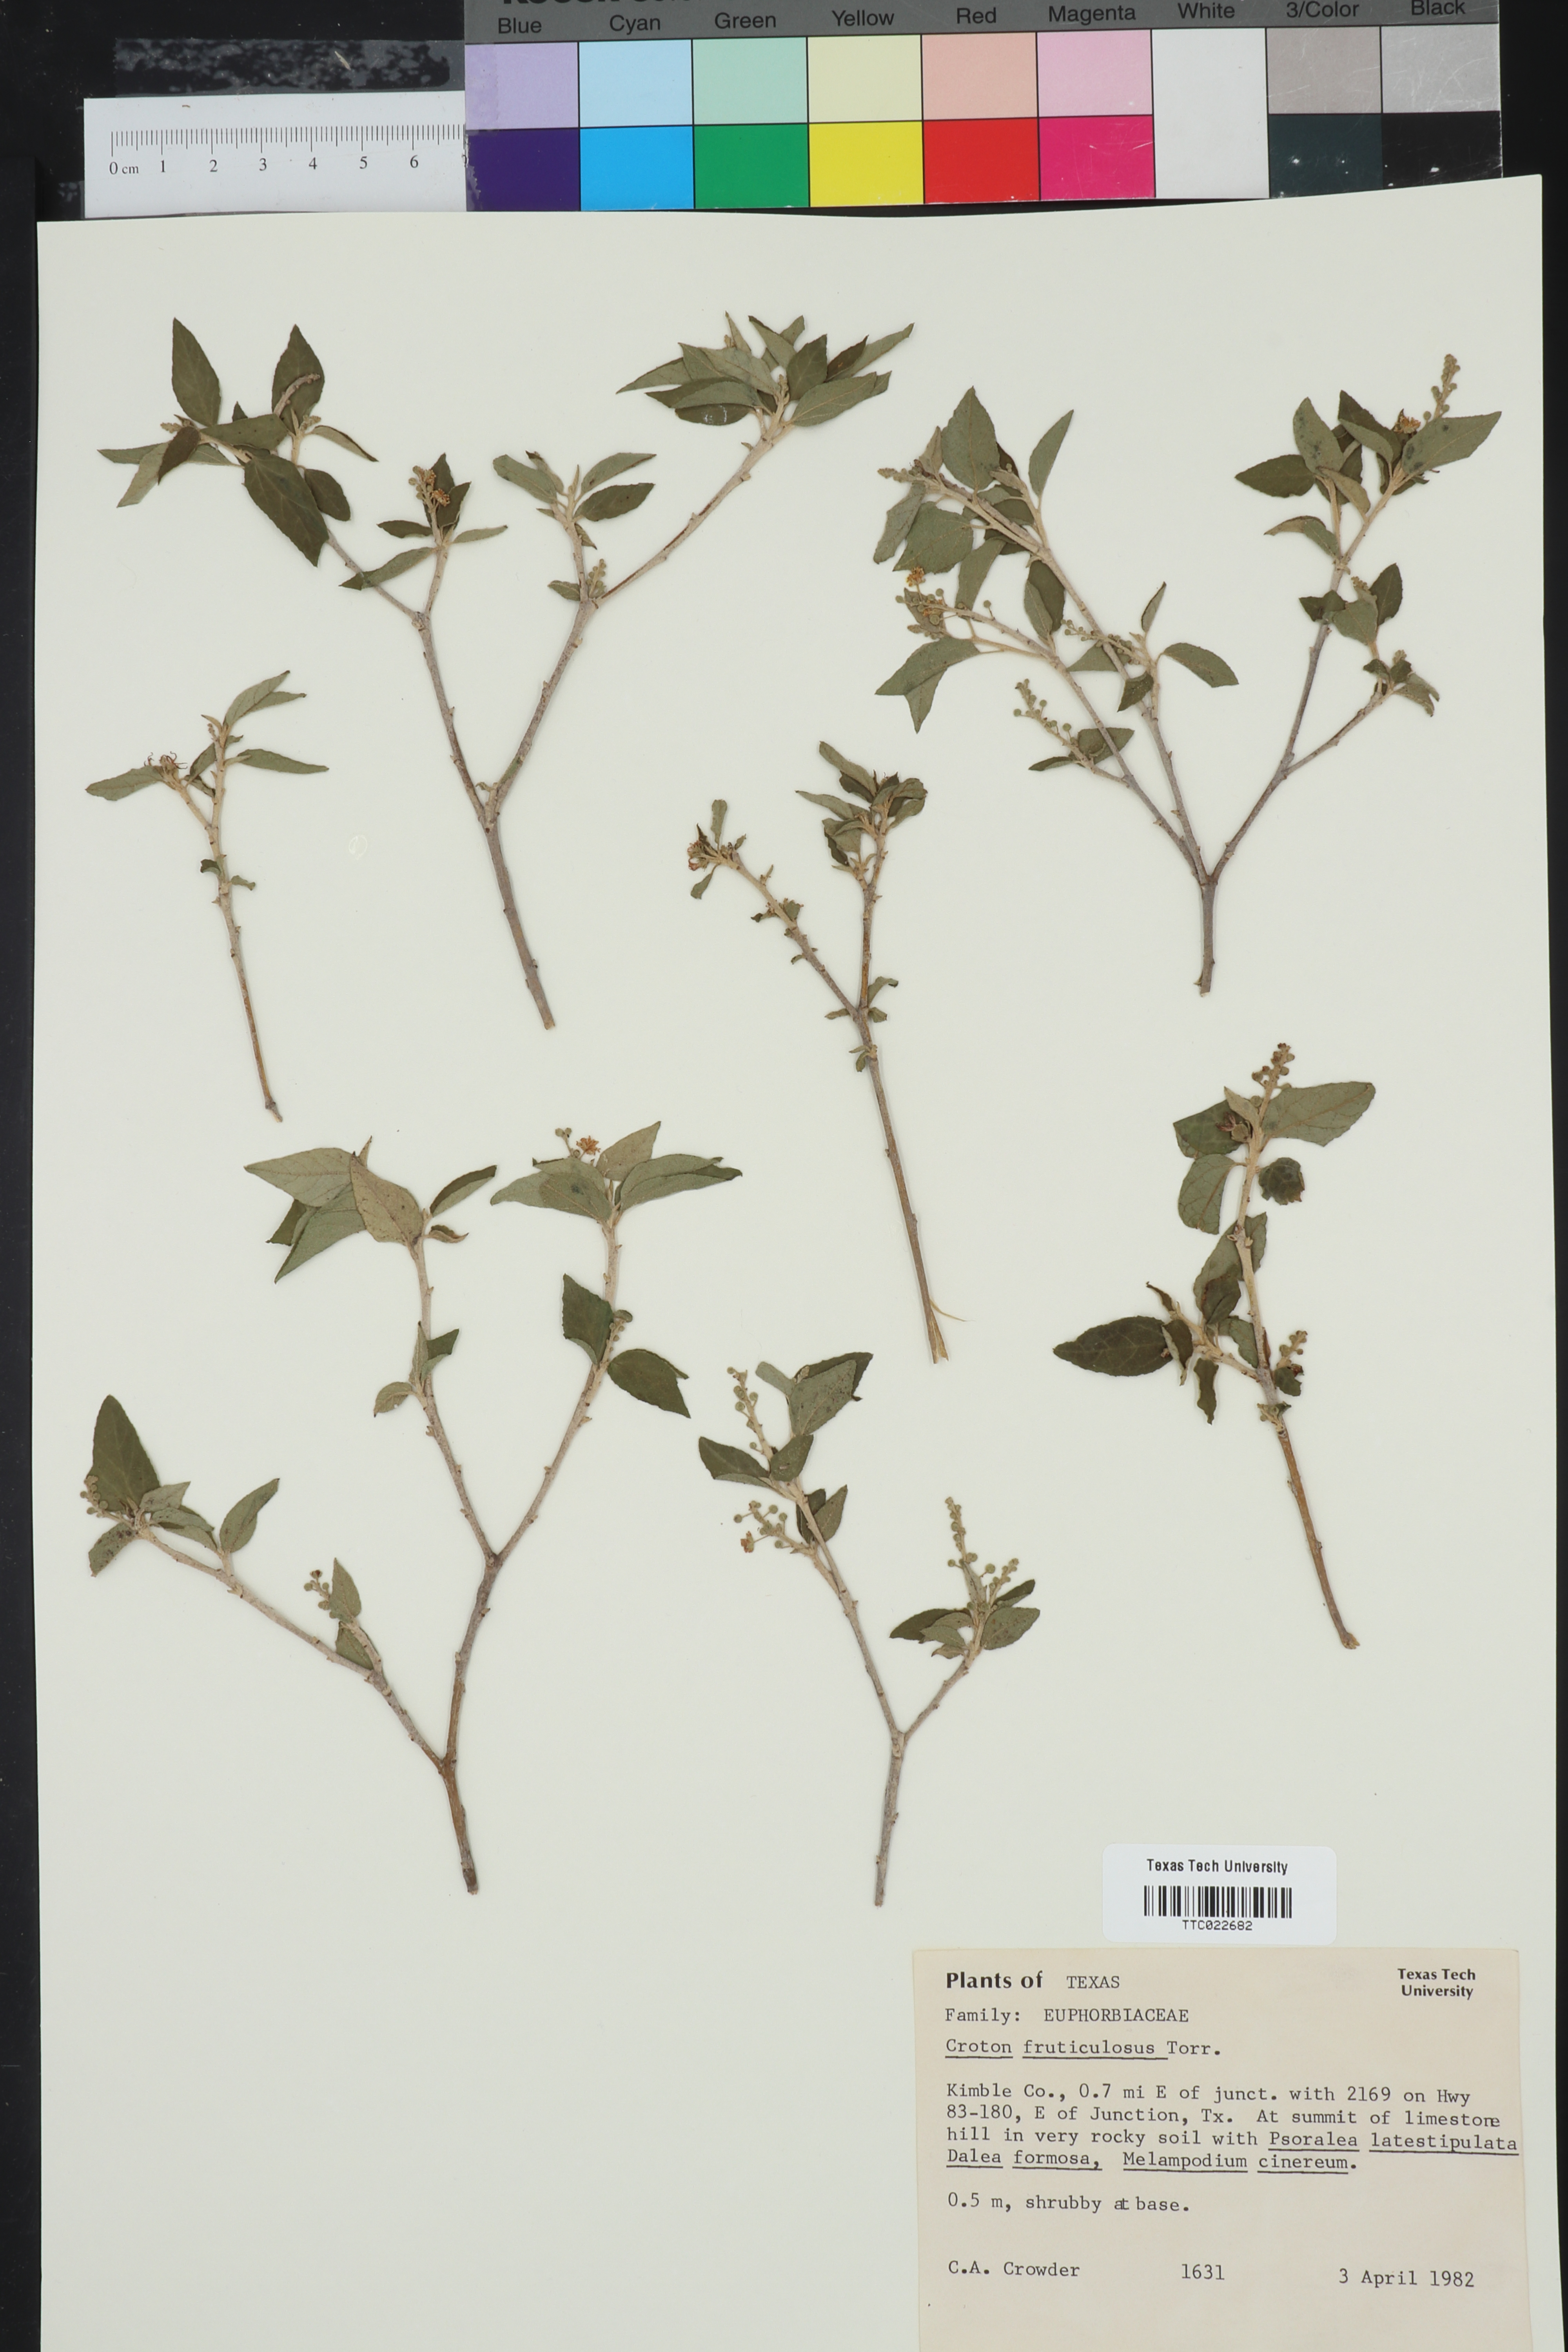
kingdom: Plantae
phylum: Tracheophyta
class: Magnoliopsida
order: Malpighiales
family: Euphorbiaceae
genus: Croton
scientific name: Croton fruticulosus
